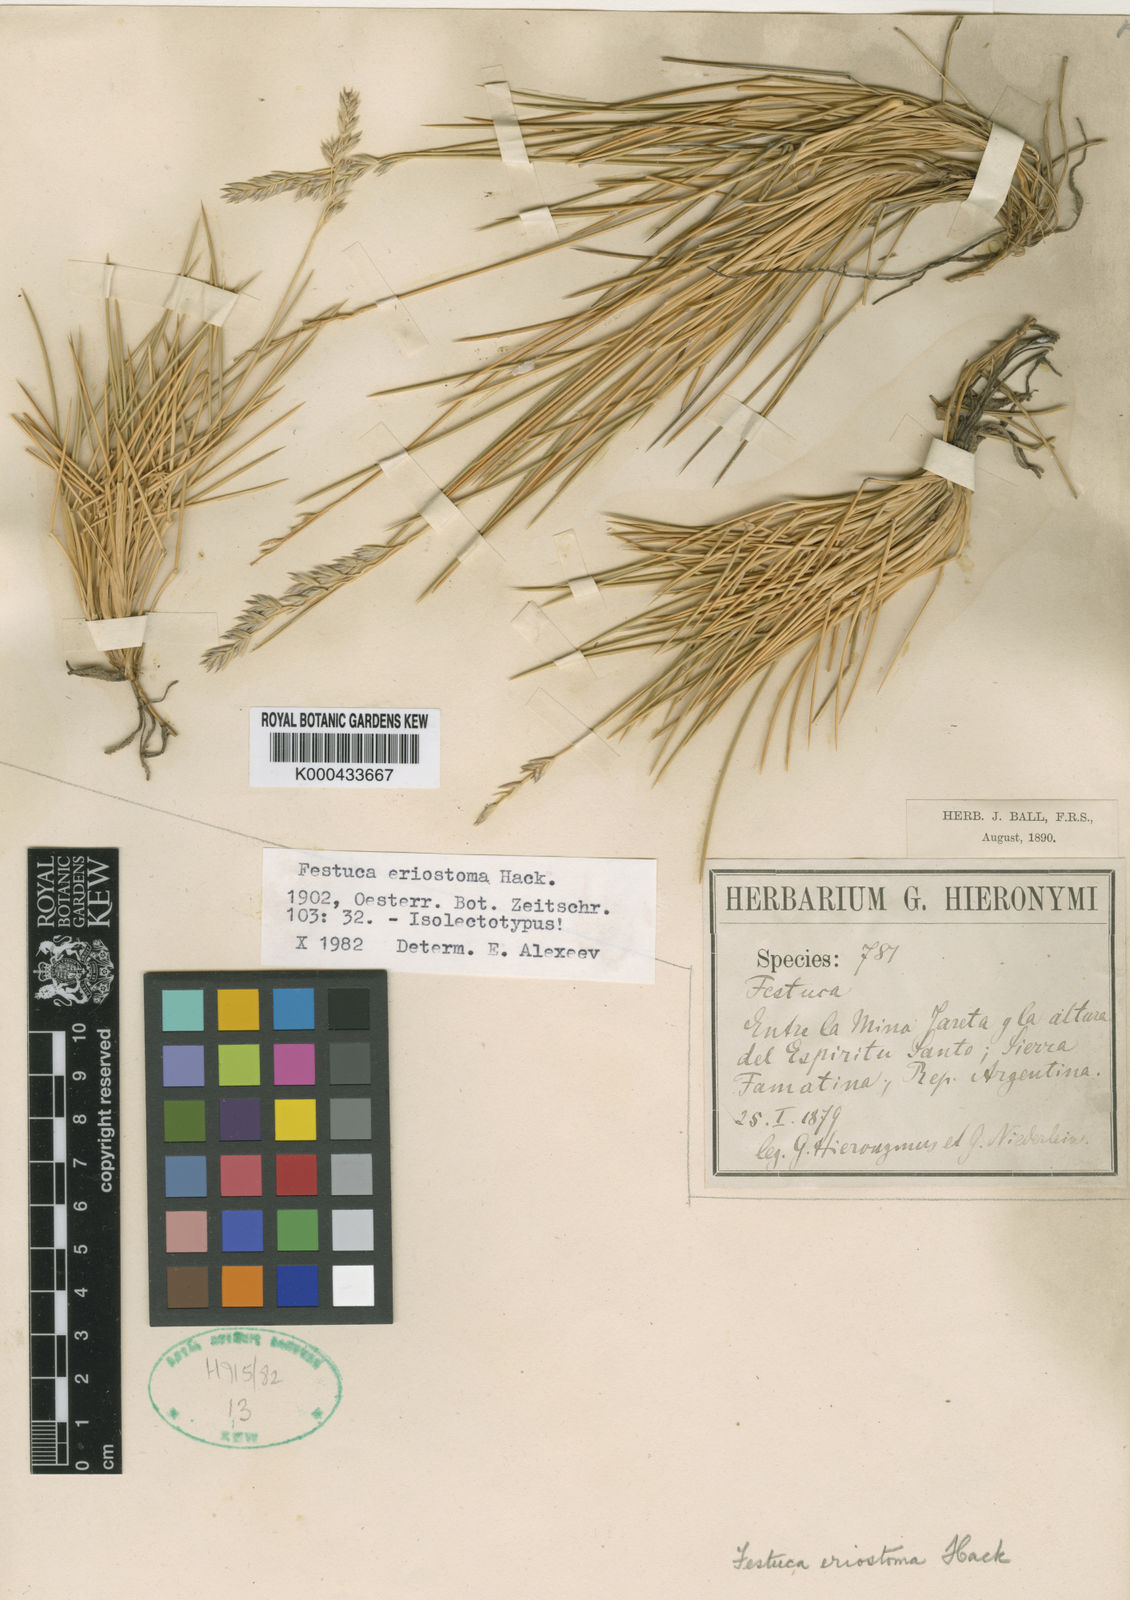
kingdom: Plantae
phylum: Tracheophyta
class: Liliopsida
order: Poales
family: Poaceae
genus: Festuca
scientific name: Festuca chrysophylla
